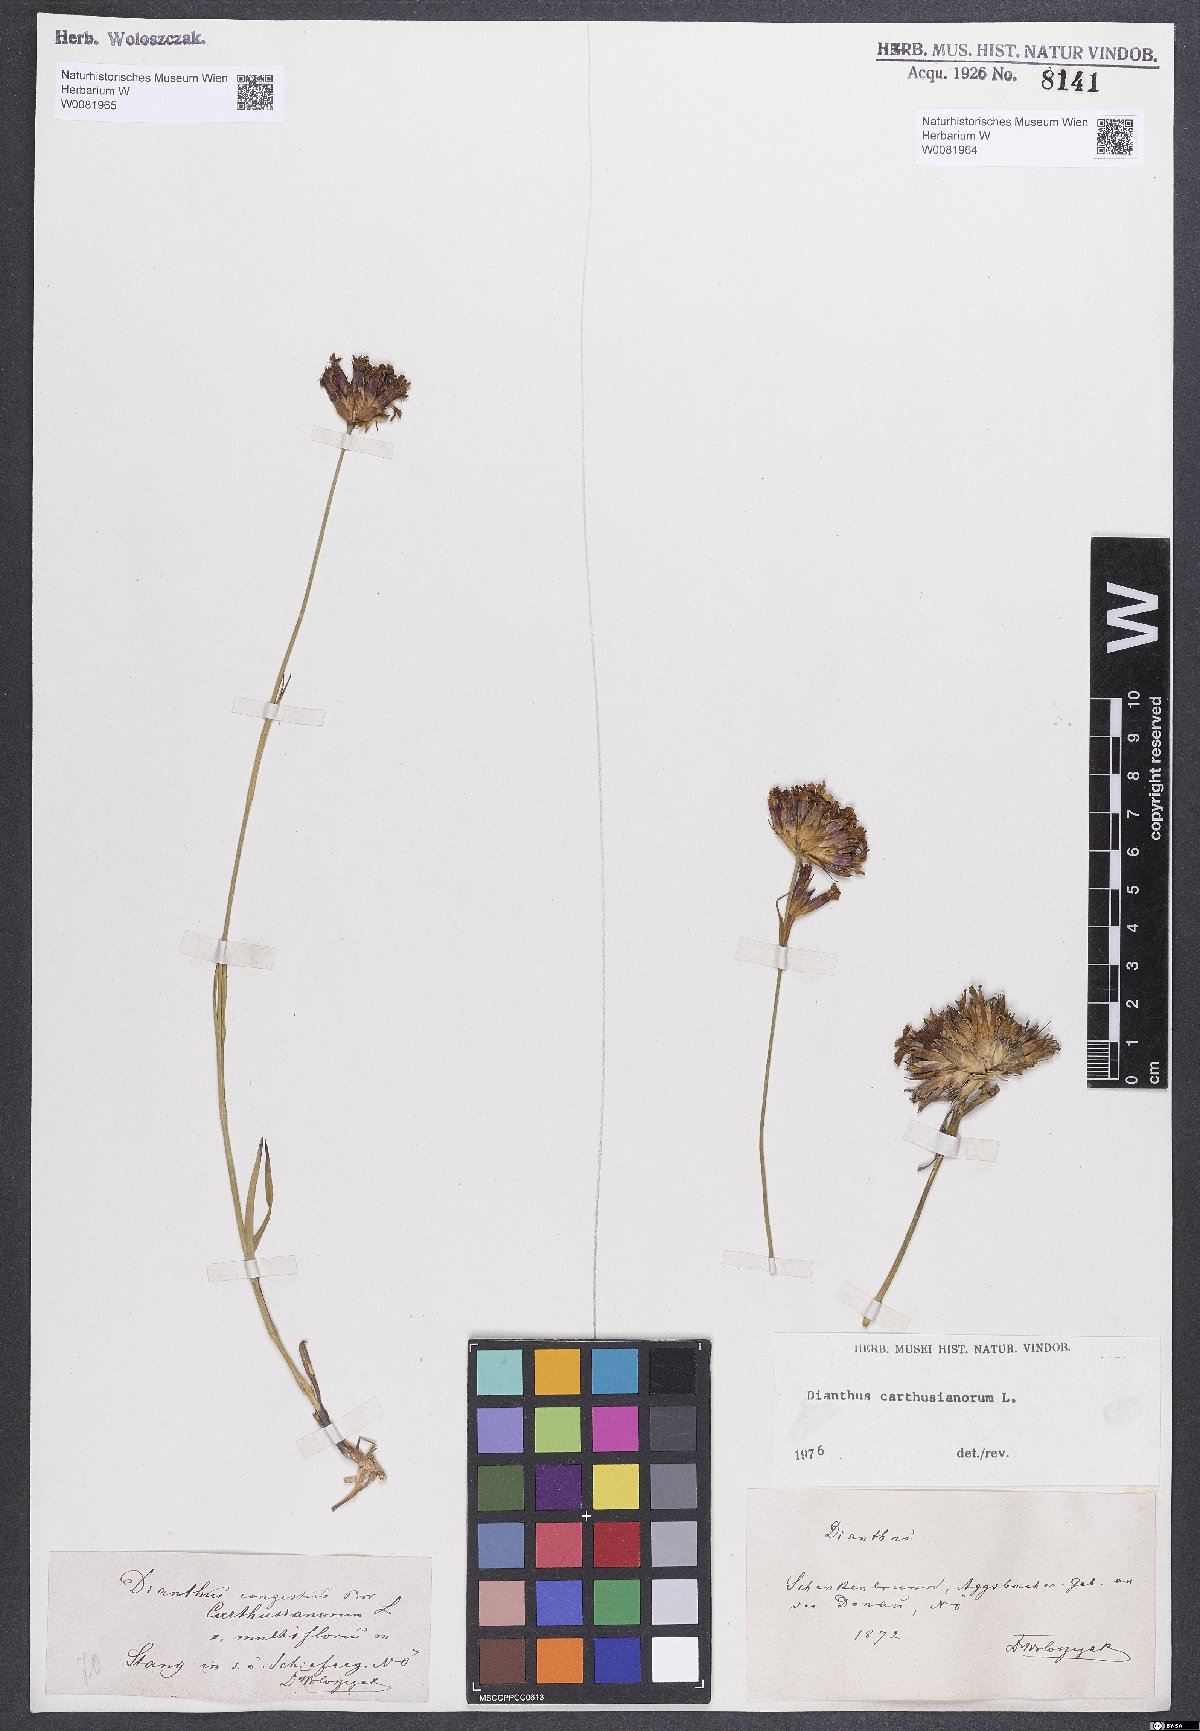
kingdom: Plantae
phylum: Tracheophyta
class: Magnoliopsida
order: Caryophyllales
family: Caryophyllaceae
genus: Dianthus
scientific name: Dianthus carthusianorum
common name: Carthusian pink
